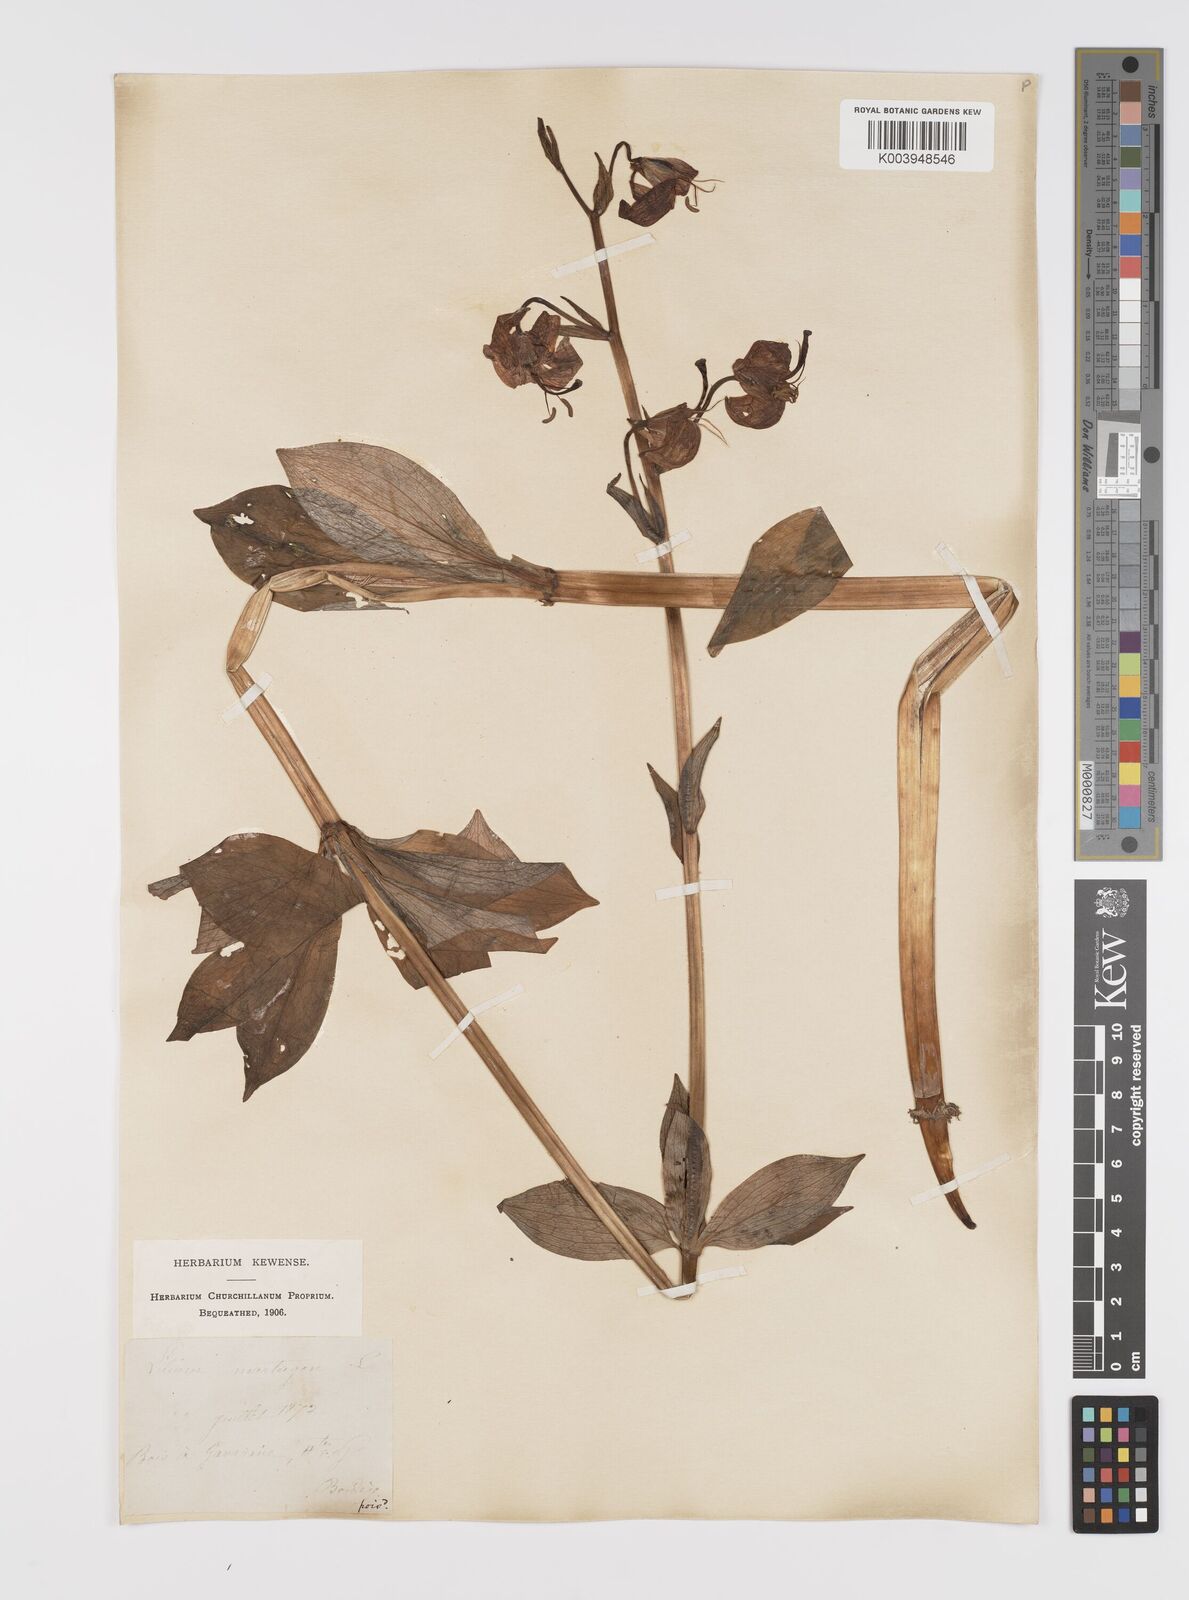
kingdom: Plantae
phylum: Tracheophyta
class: Liliopsida
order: Liliales
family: Liliaceae
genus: Lilium
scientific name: Lilium martagon
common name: Martagon lily
